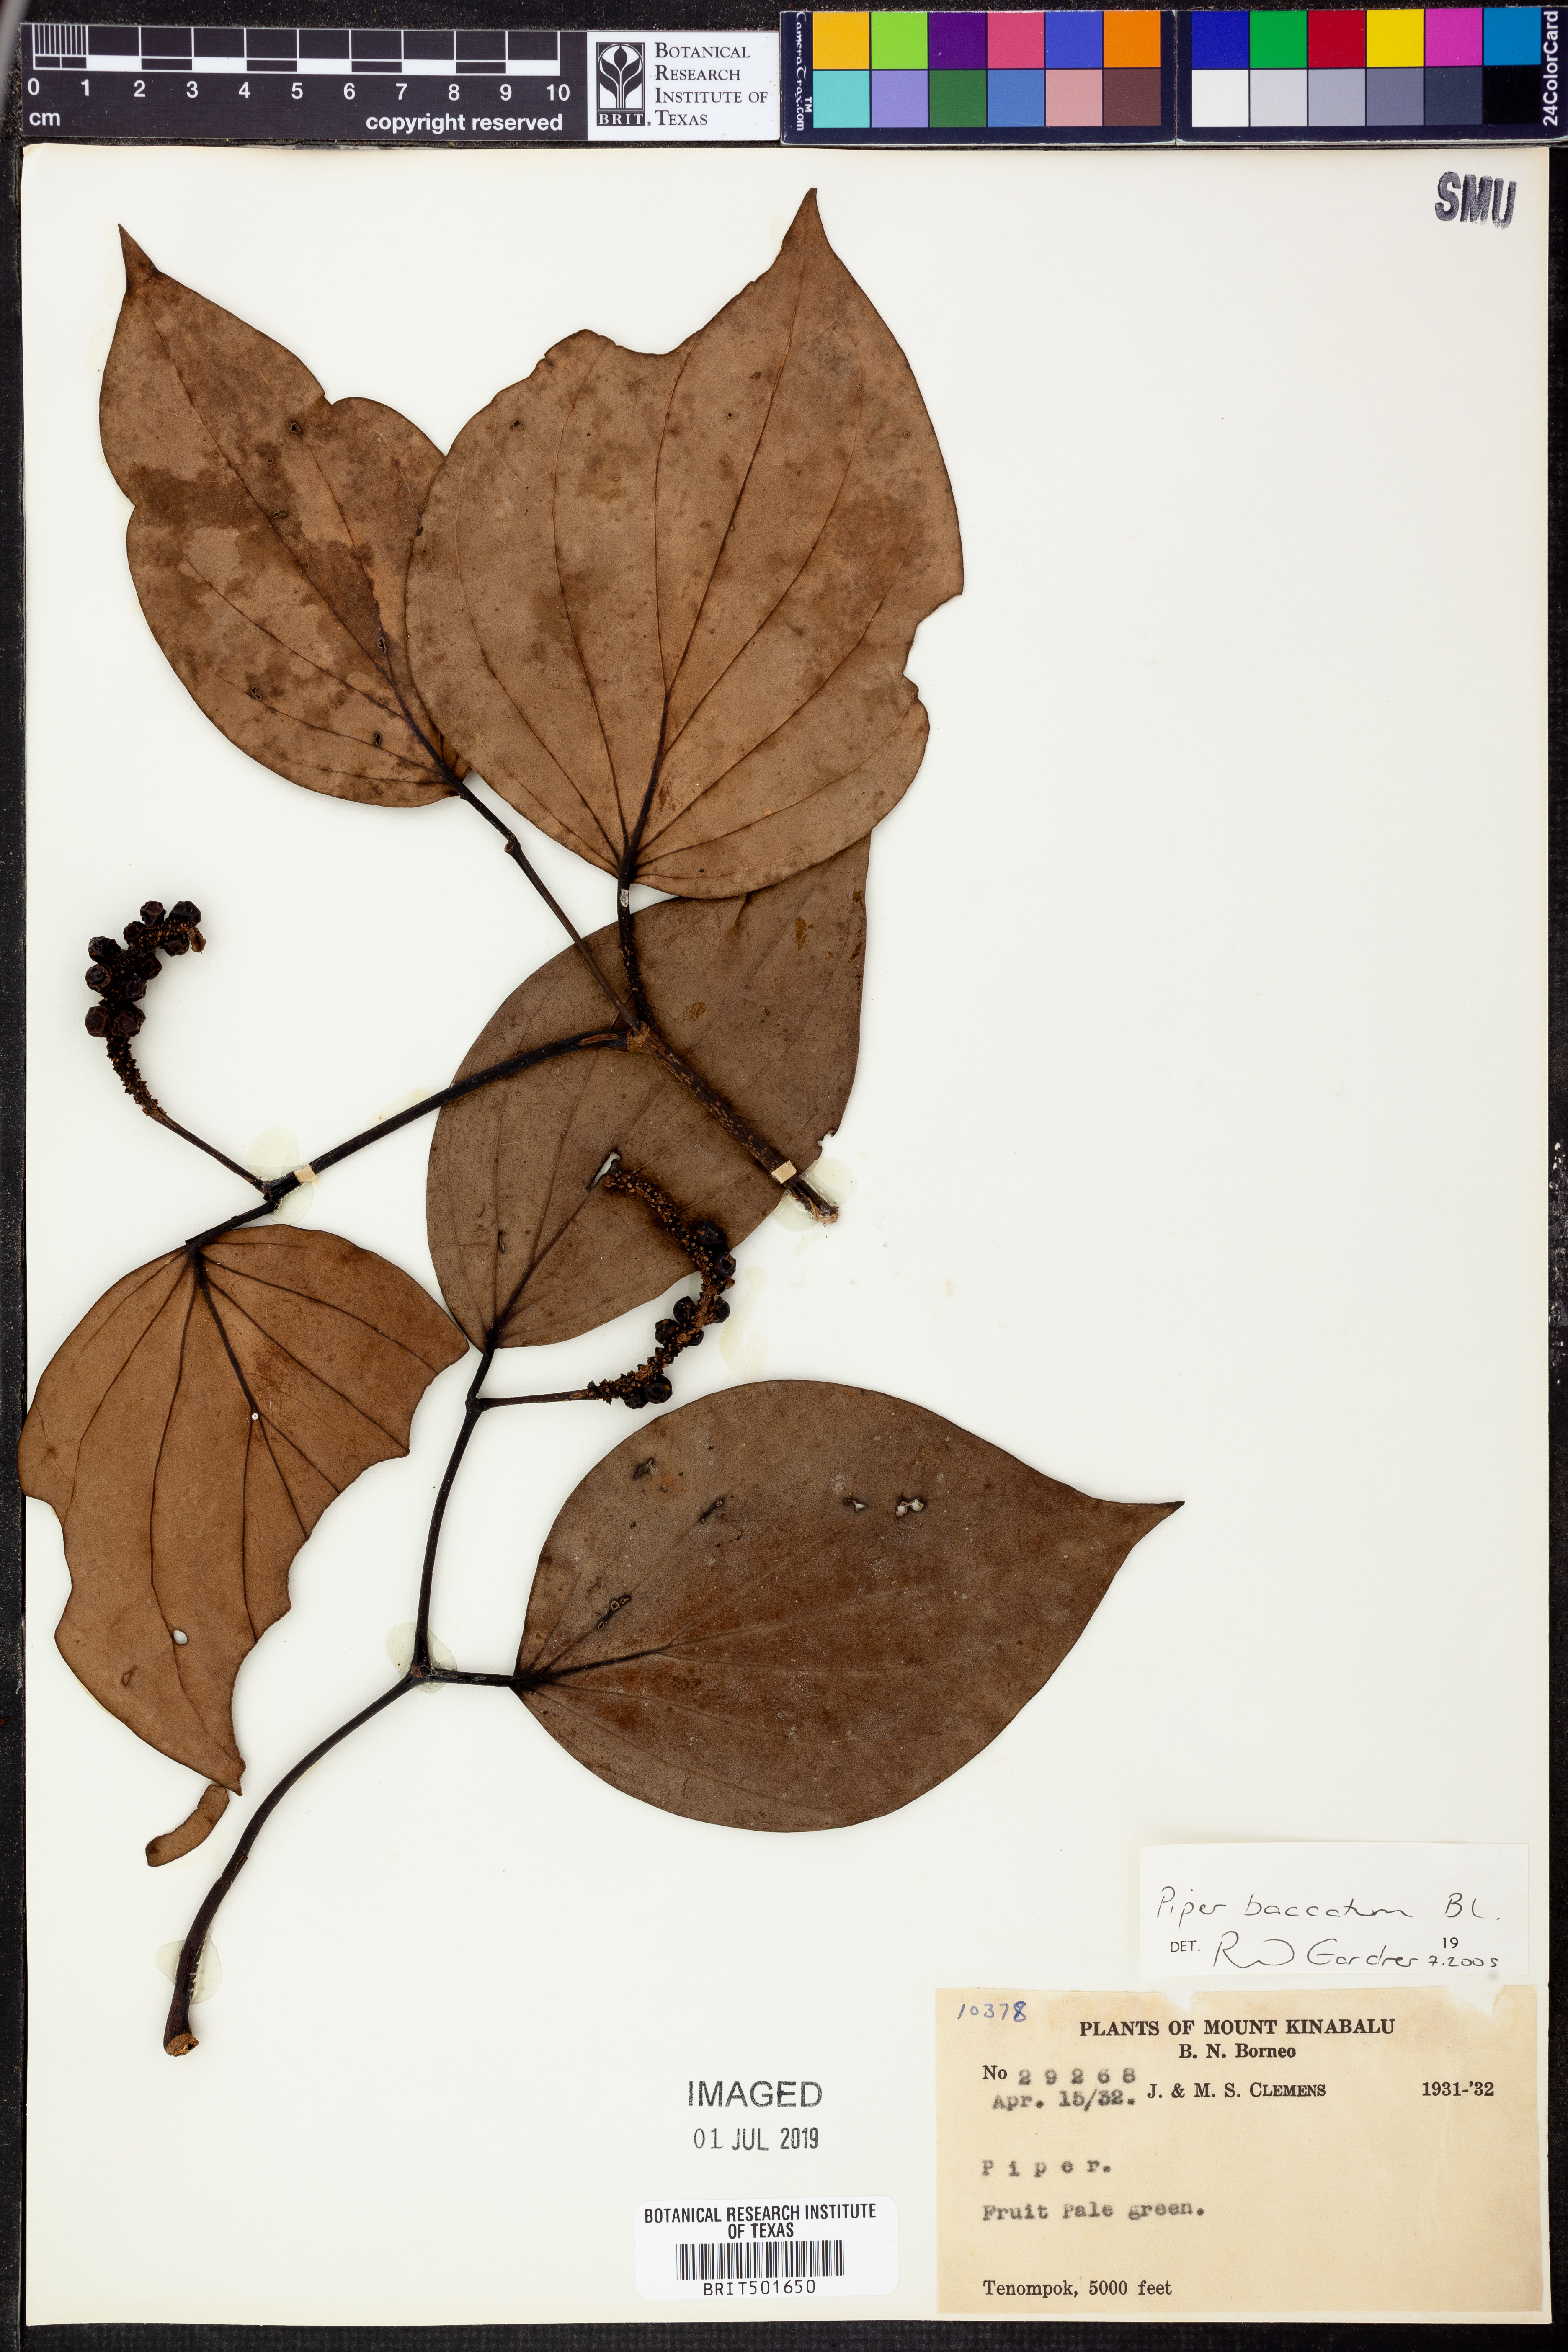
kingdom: Plantae
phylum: Tracheophyta
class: Magnoliopsida
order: Piperales
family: Piperaceae
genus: Piper
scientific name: Piper baccatum
